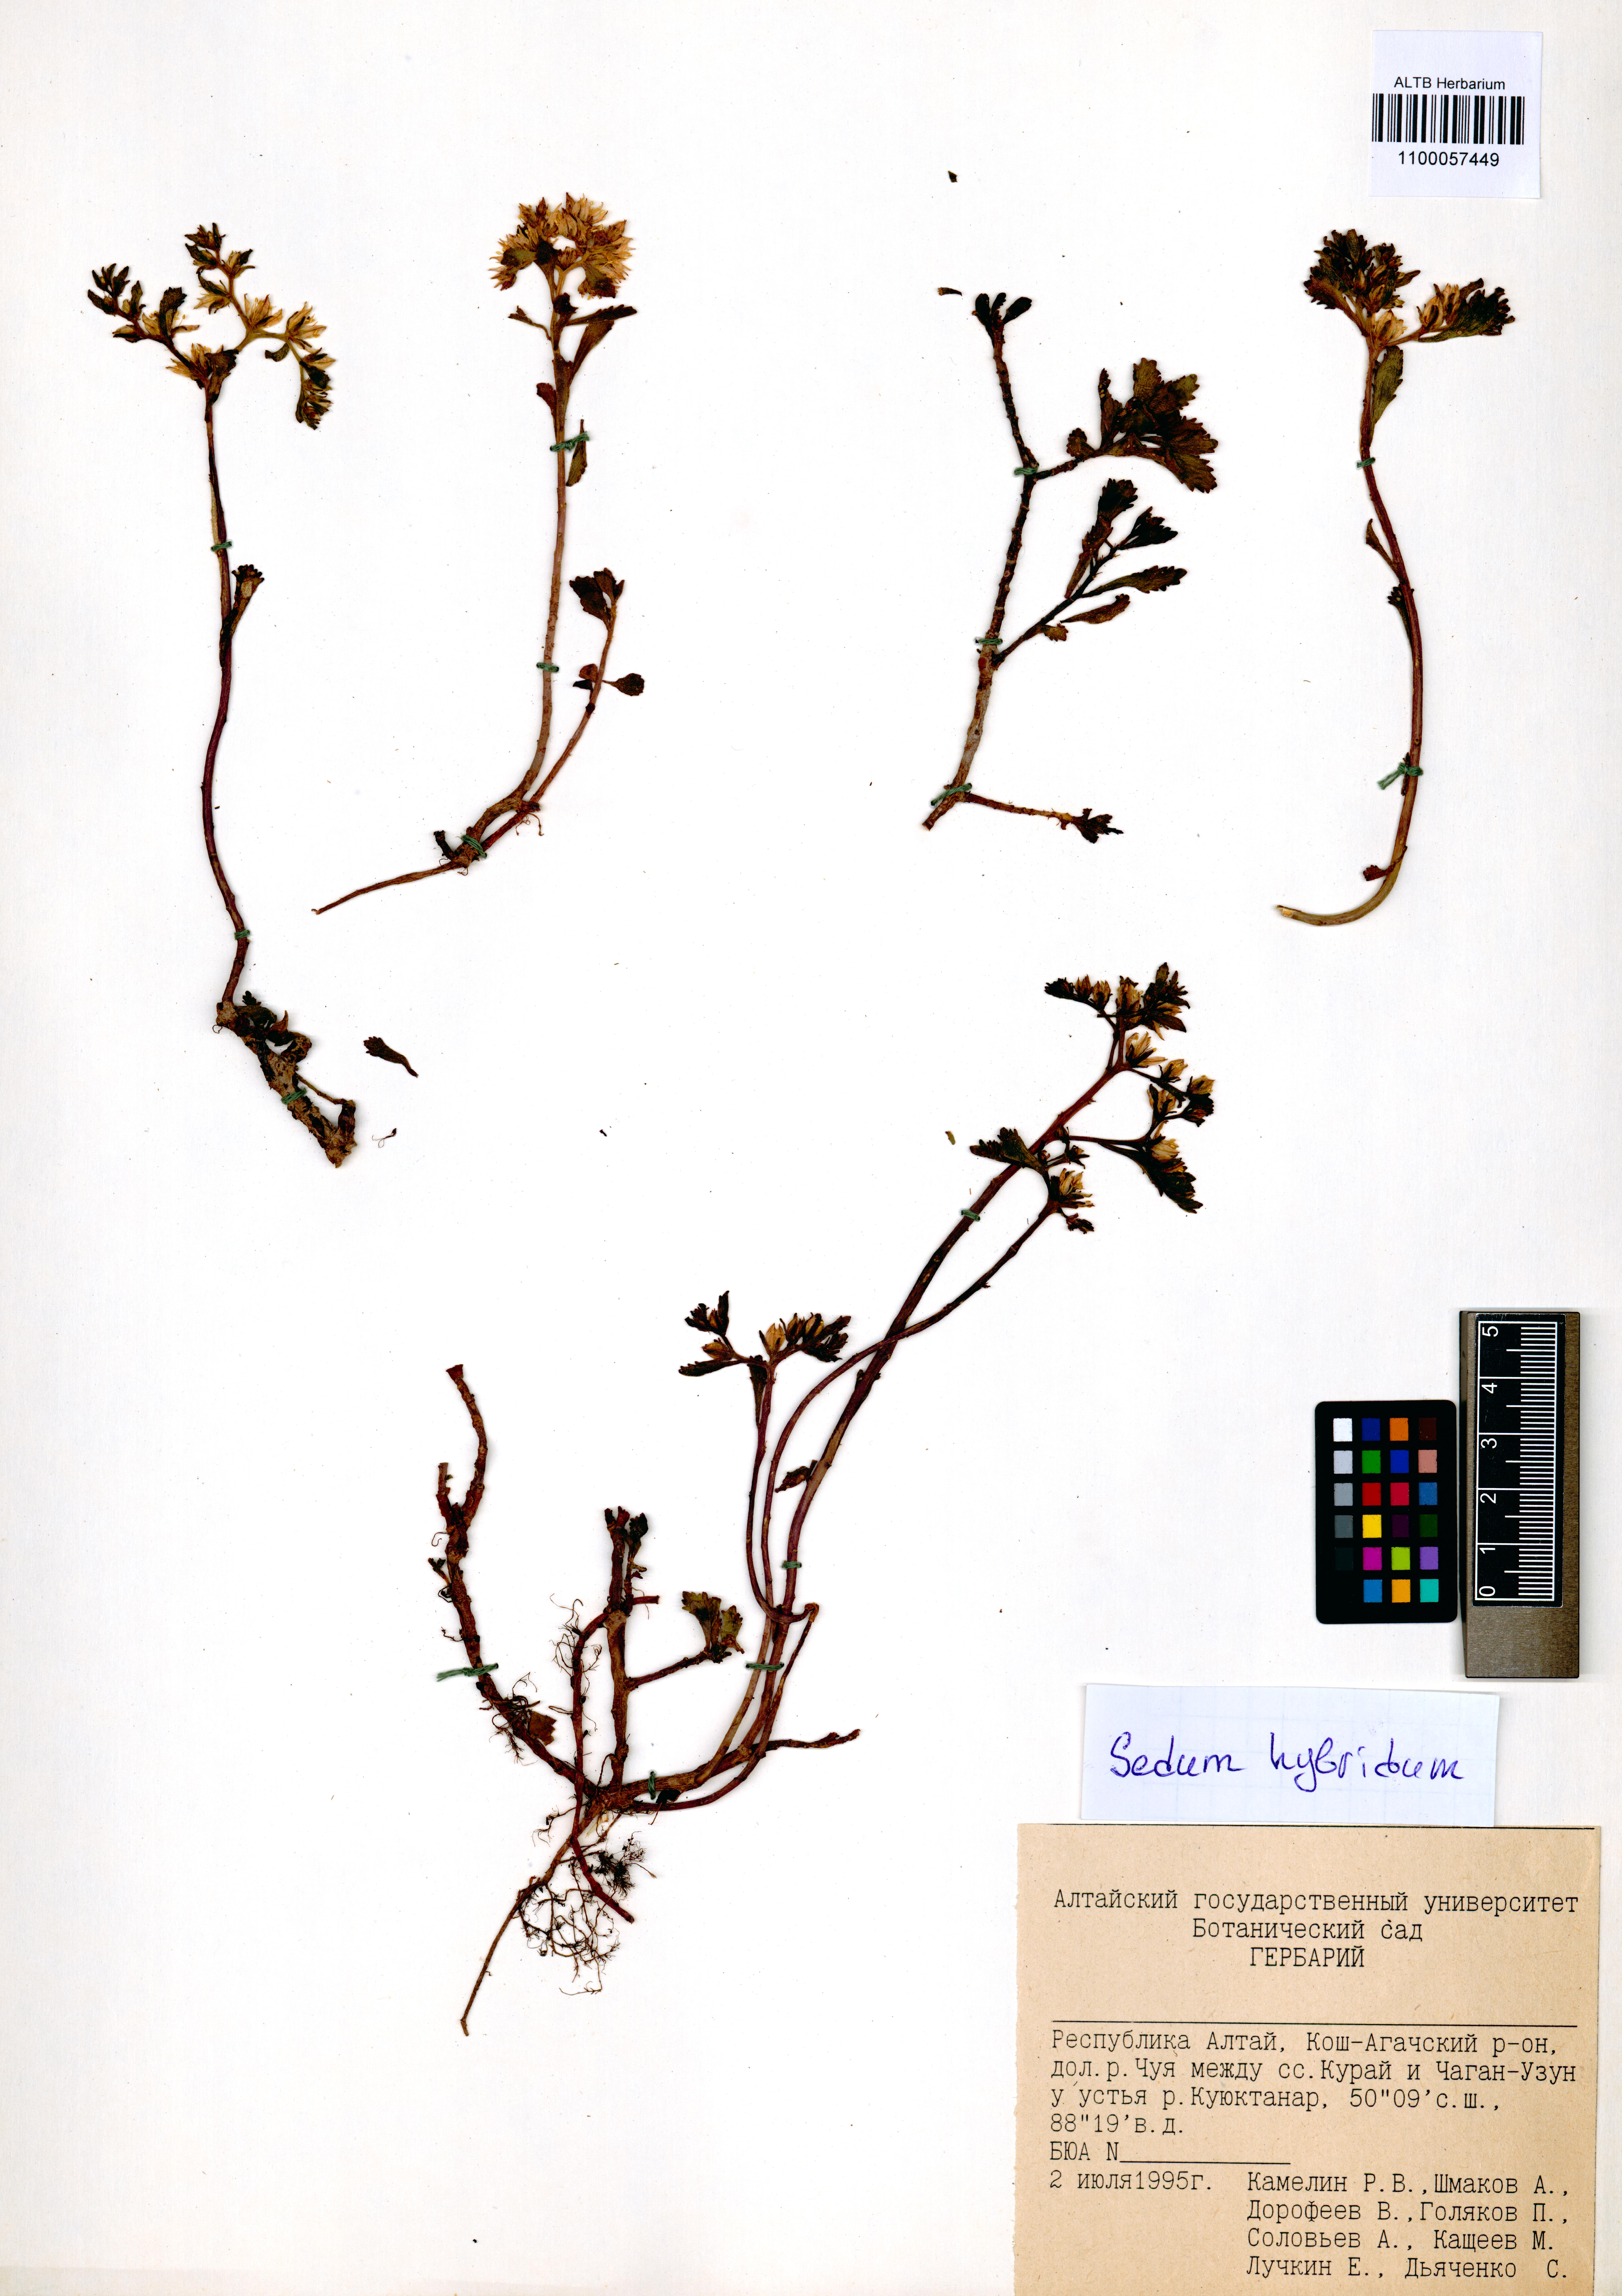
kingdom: Plantae
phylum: Tracheophyta
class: Magnoliopsida
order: Saxifragales
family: Crassulaceae
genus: Phedimus
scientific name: Phedimus hybridus
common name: Hybrid stonecrop
